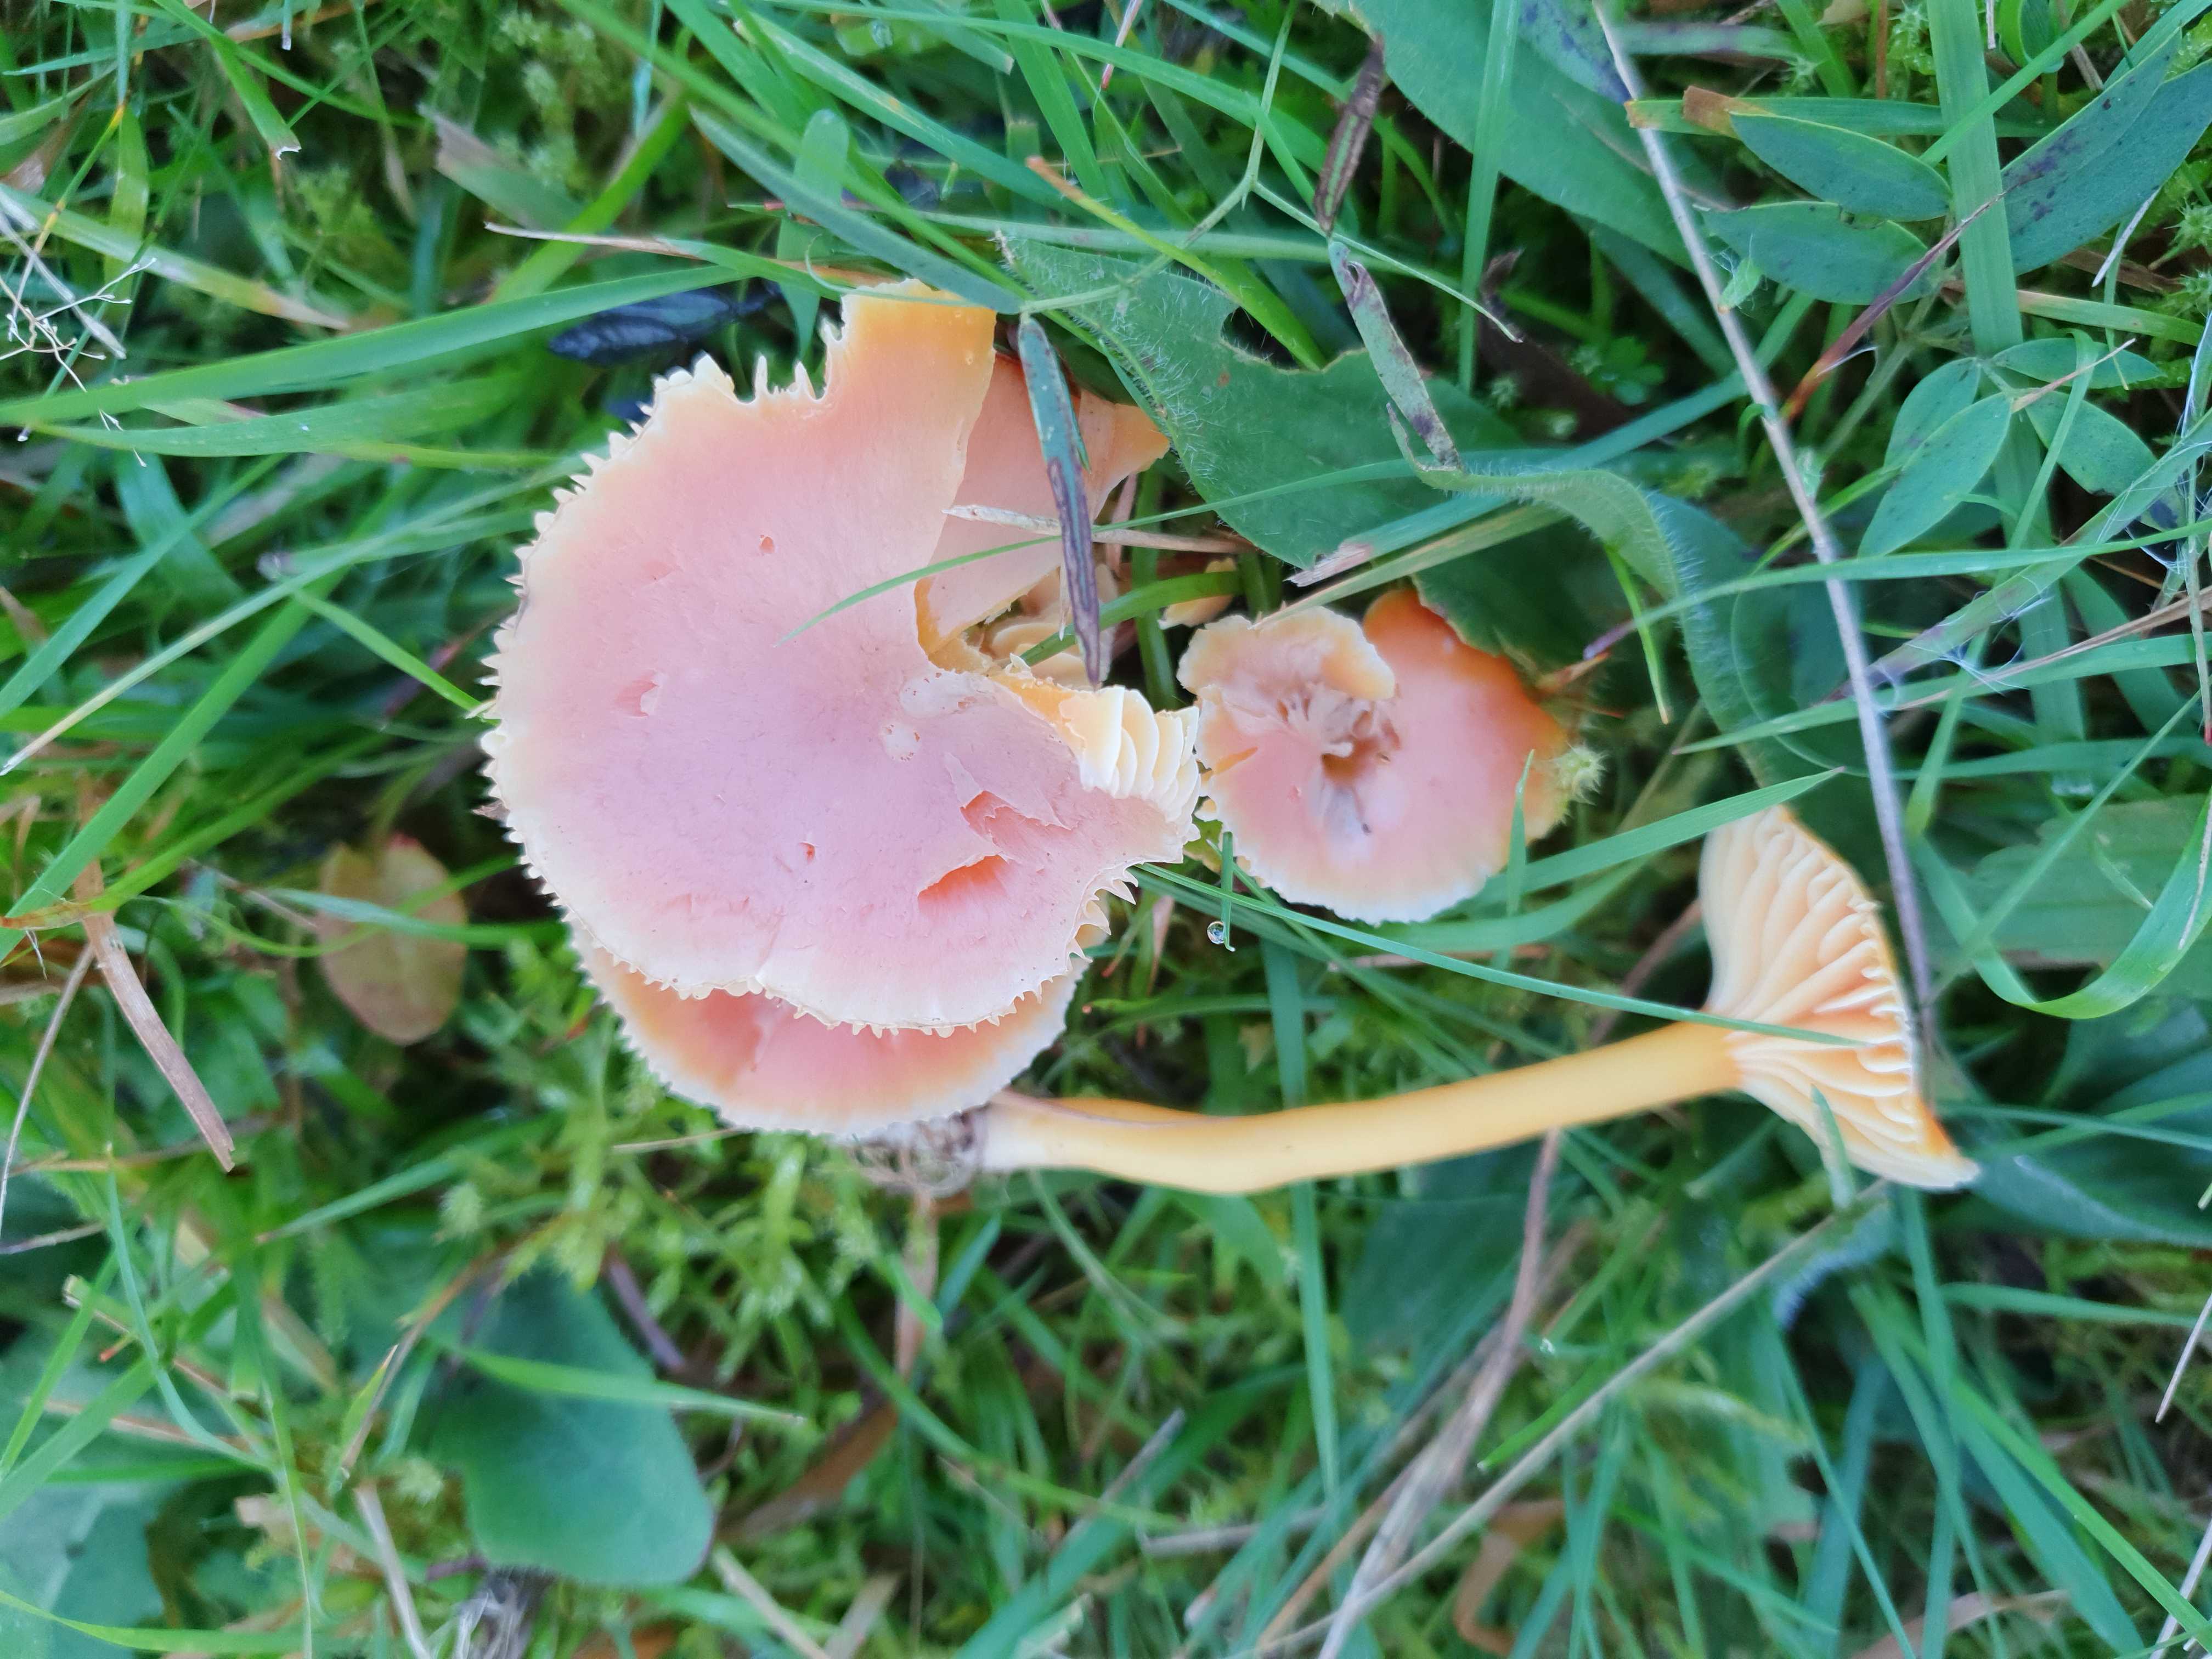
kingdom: Fungi
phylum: Basidiomycota
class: Agaricomycetes
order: Agaricales
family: Hygrophoraceae
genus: Hygrocybe
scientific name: Hygrocybe reidii
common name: honning-vokshat
